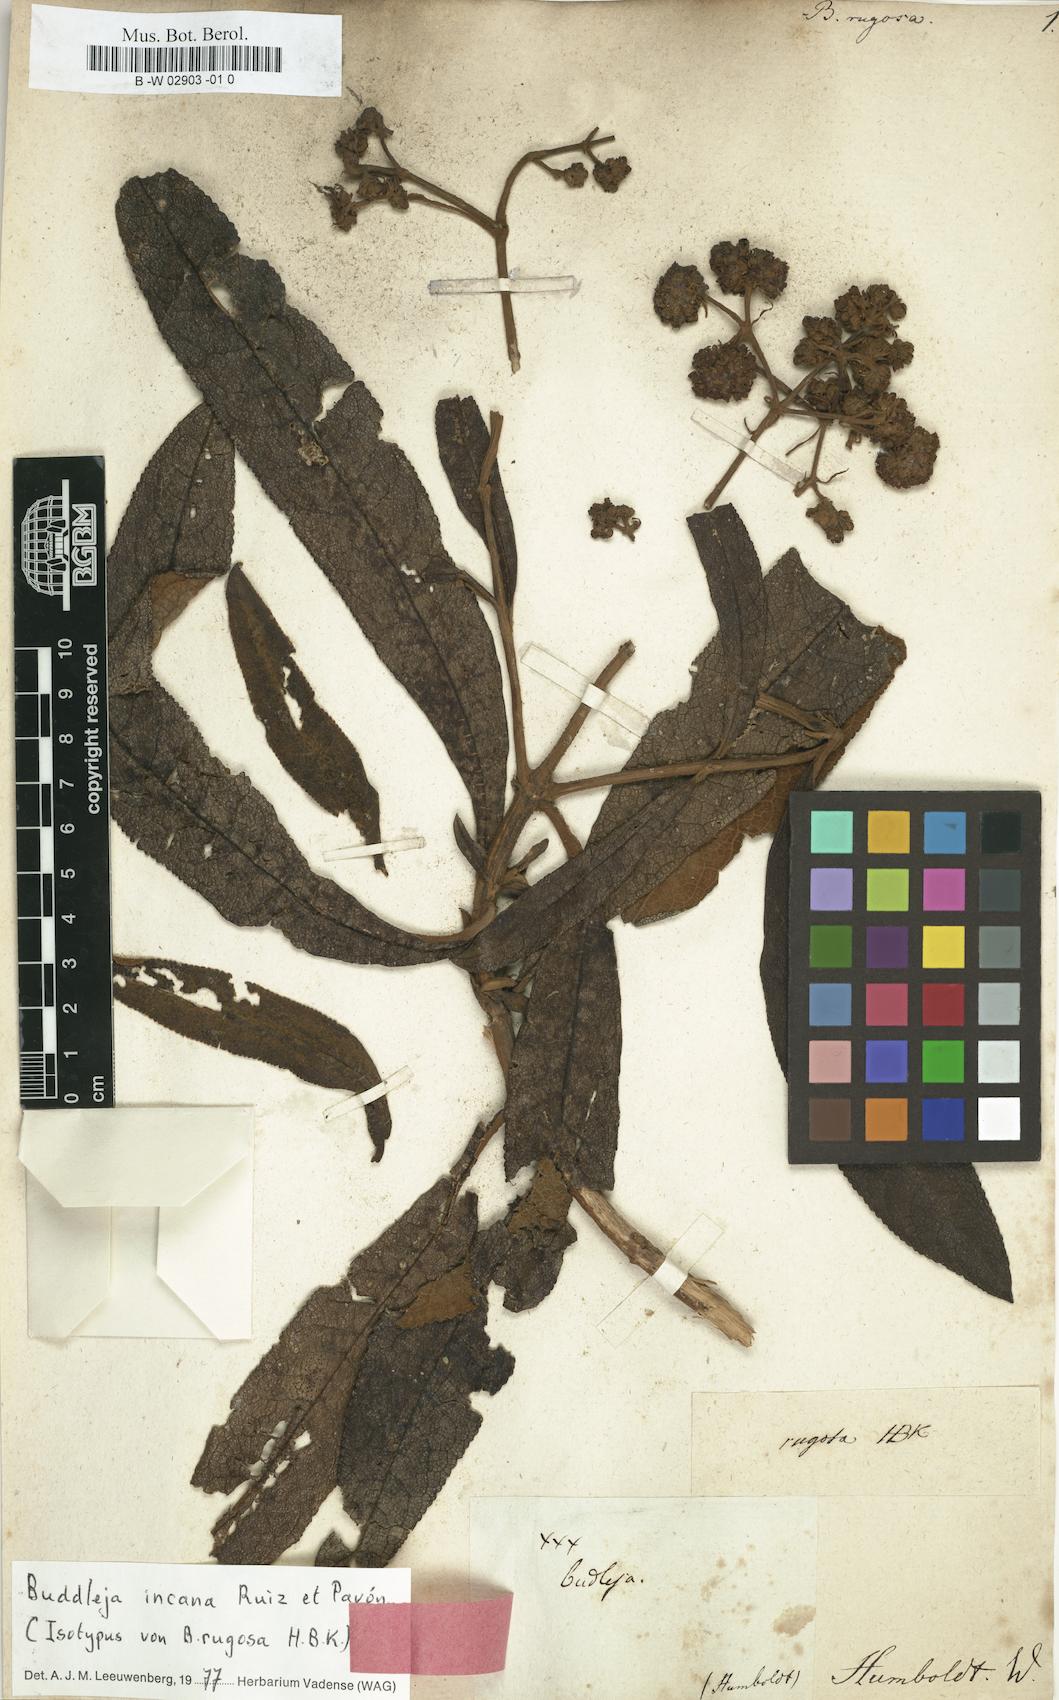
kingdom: Plantae
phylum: Tracheophyta
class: Magnoliopsida
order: Lamiales
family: Scrophulariaceae
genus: Buddleja
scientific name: Buddleja incana
